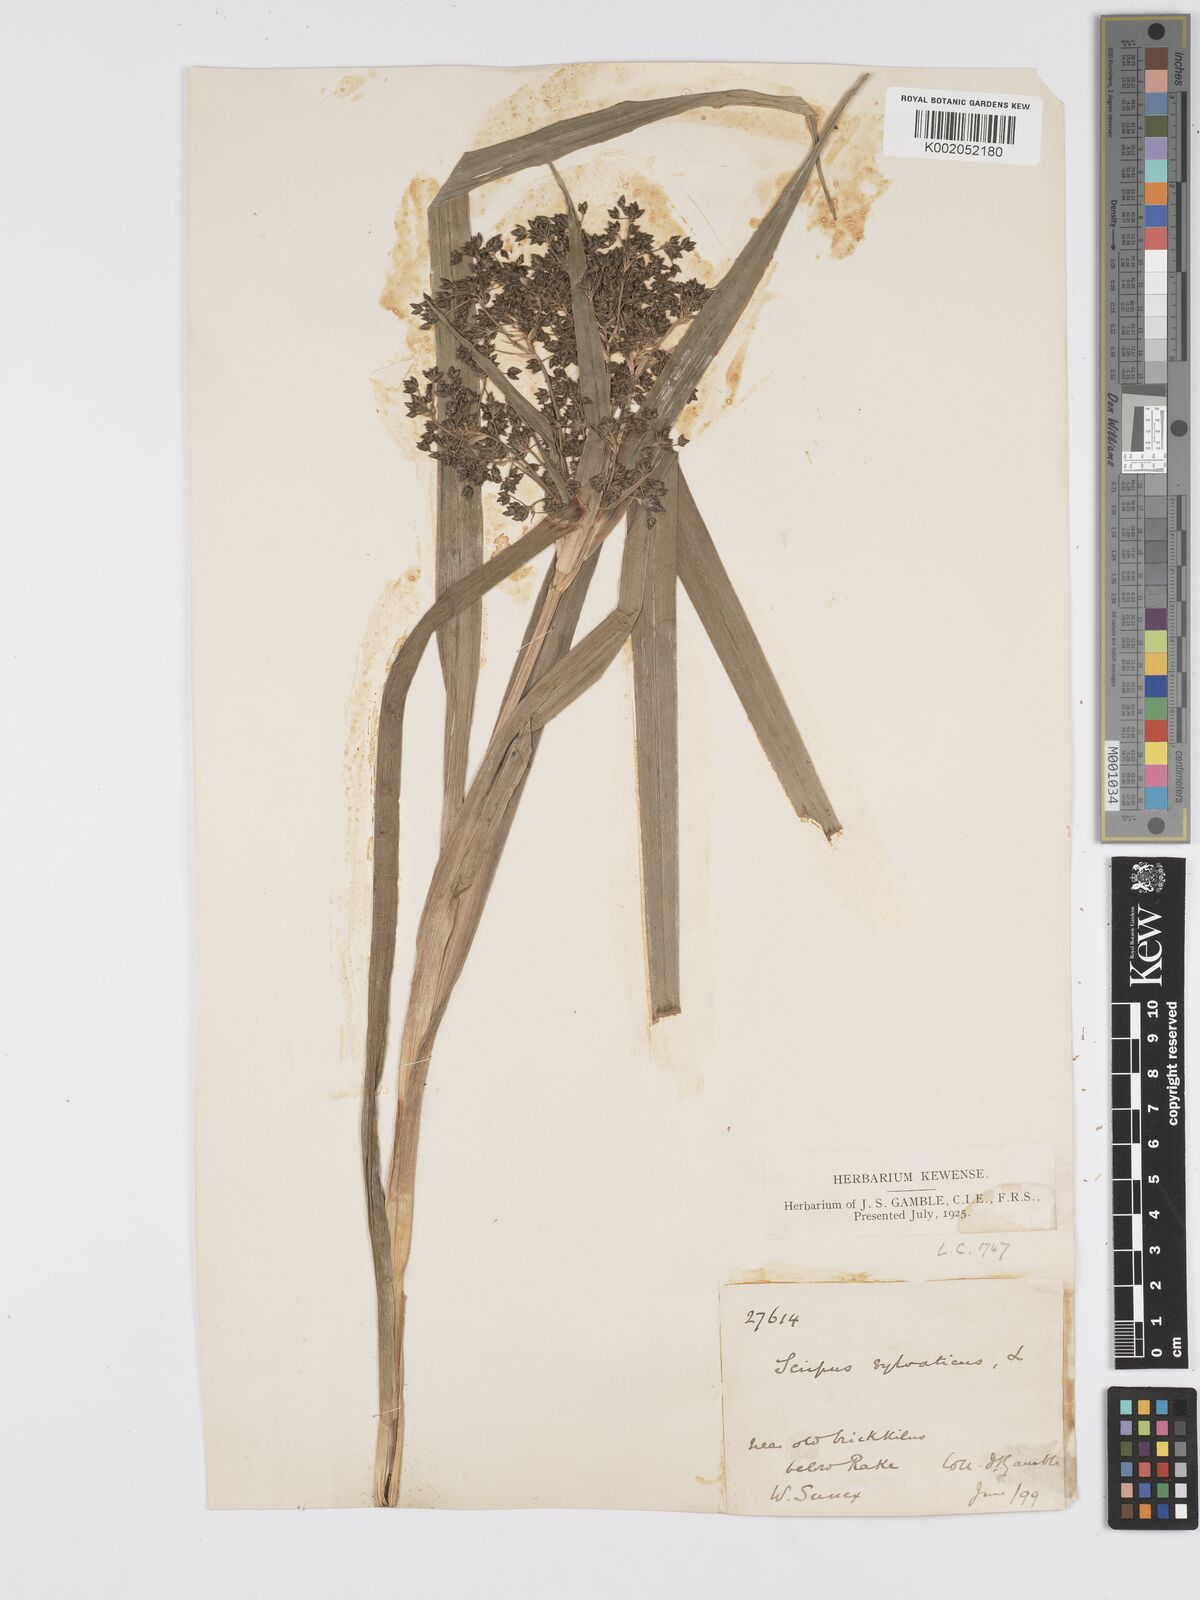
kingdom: Plantae
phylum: Tracheophyta
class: Liliopsida
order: Poales
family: Cyperaceae
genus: Scirpus
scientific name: Scirpus sylvaticus
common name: Wood club-rush
